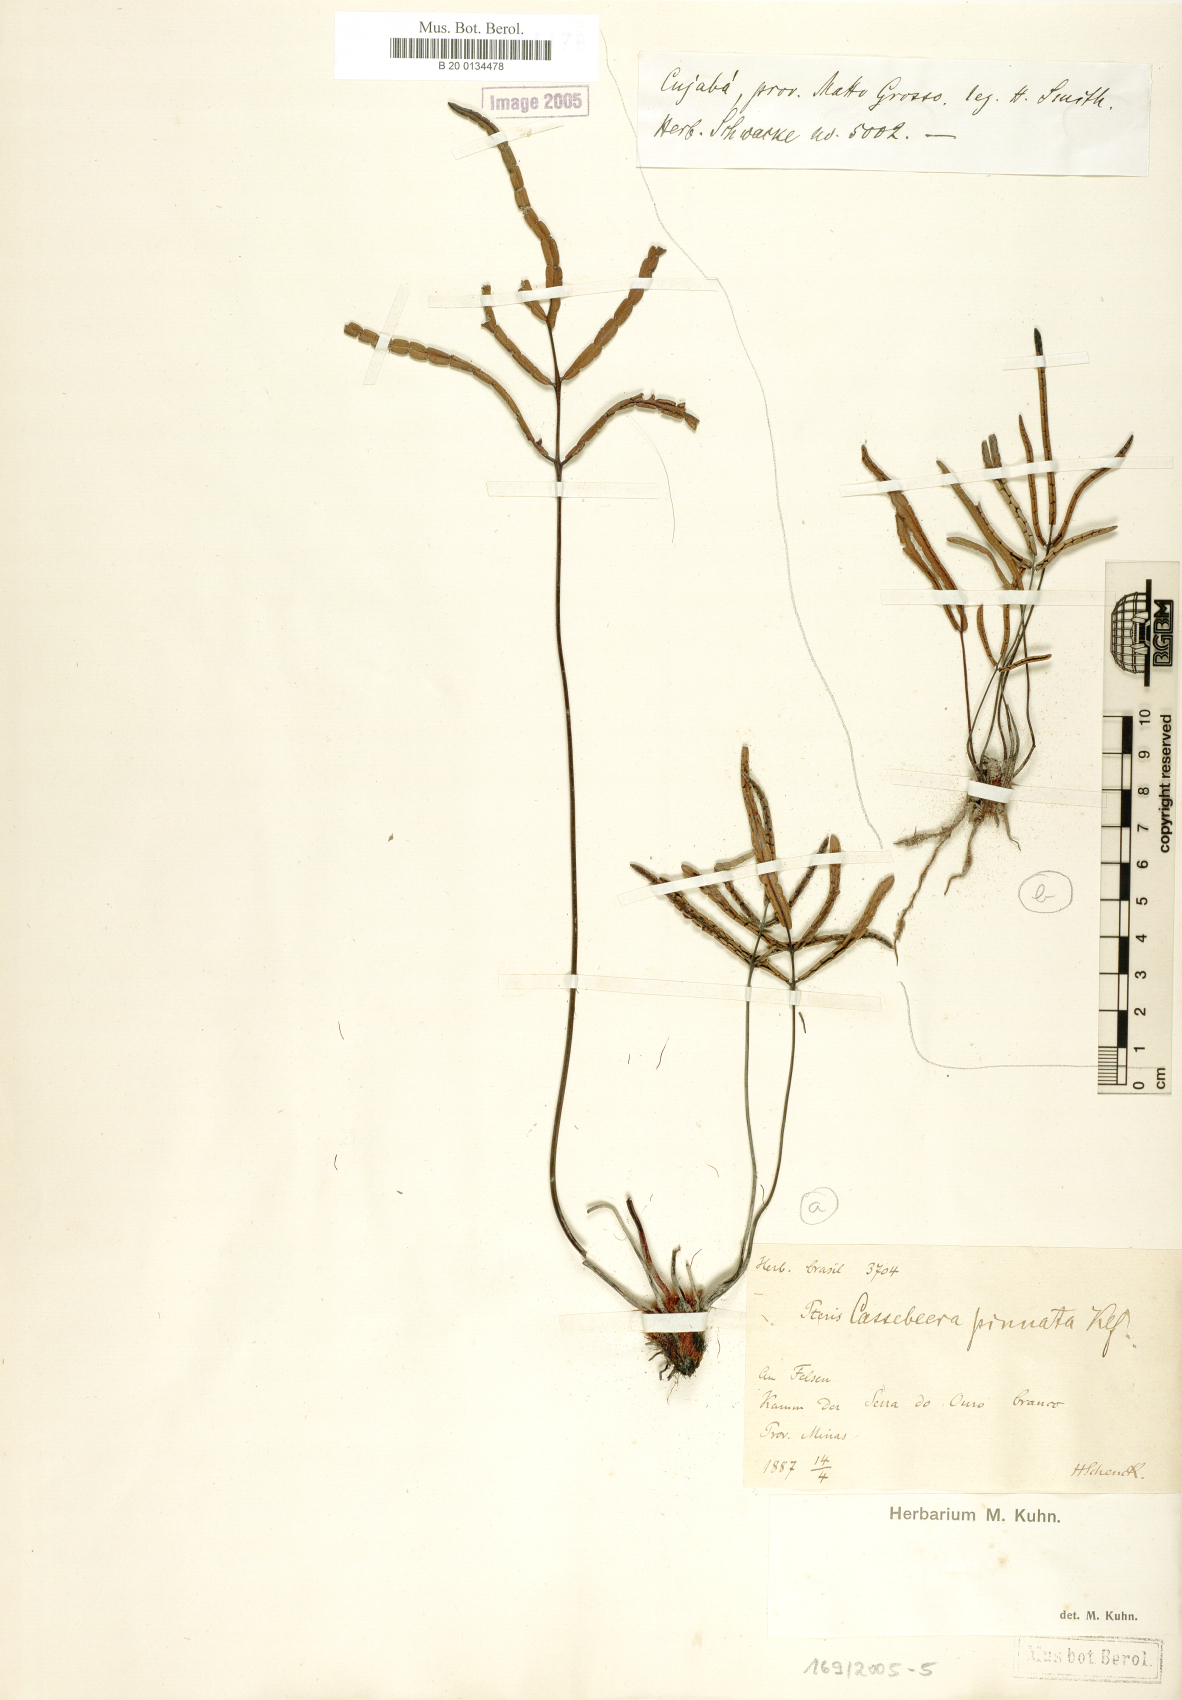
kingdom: Plantae
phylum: Tracheophyta
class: Polypodiopsida
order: Polypodiales
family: Pteridaceae
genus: Ormopteris
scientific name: Ormopteris pinnata
